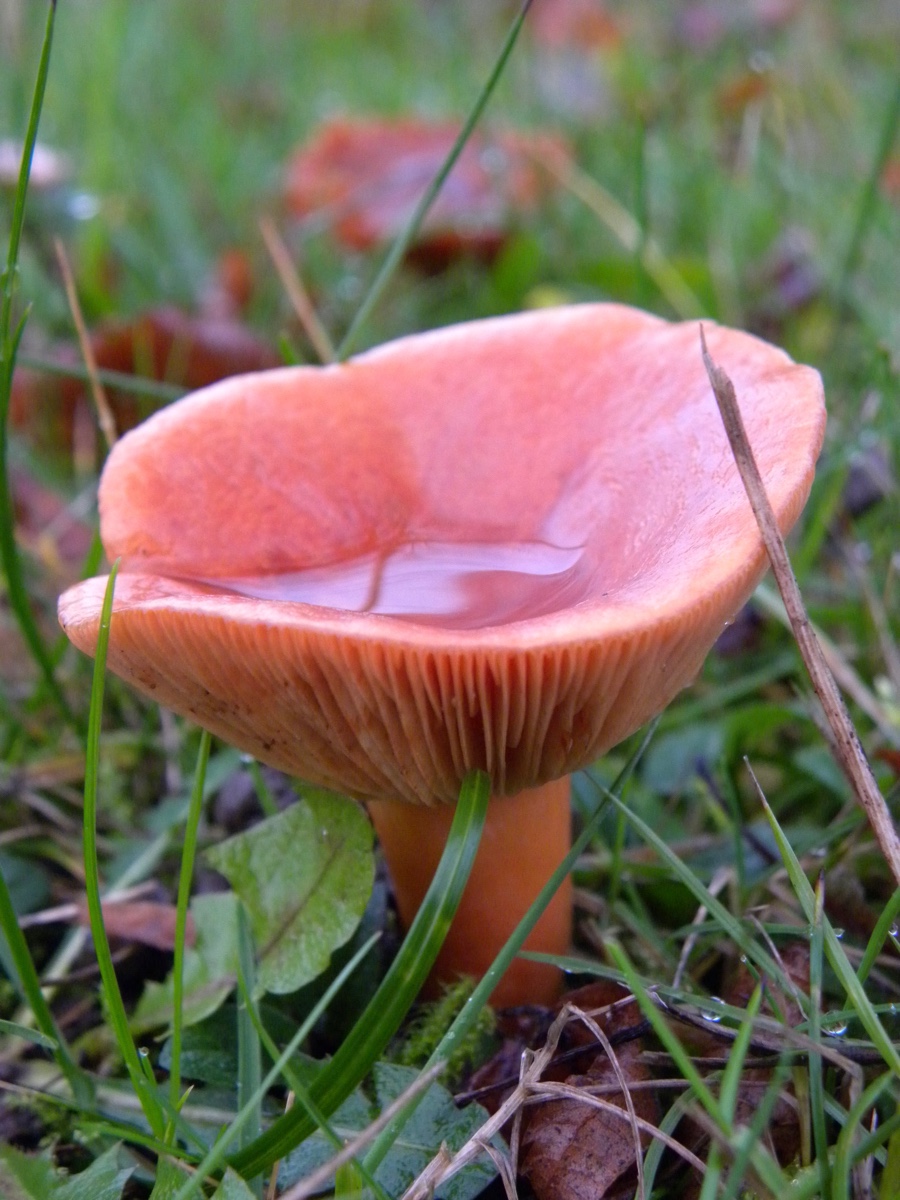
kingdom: Fungi
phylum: Basidiomycota
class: Agaricomycetes
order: Russulales
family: Russulaceae
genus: Lactarius
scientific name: Lactarius fulvissimus
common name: ræve-mælkehat
